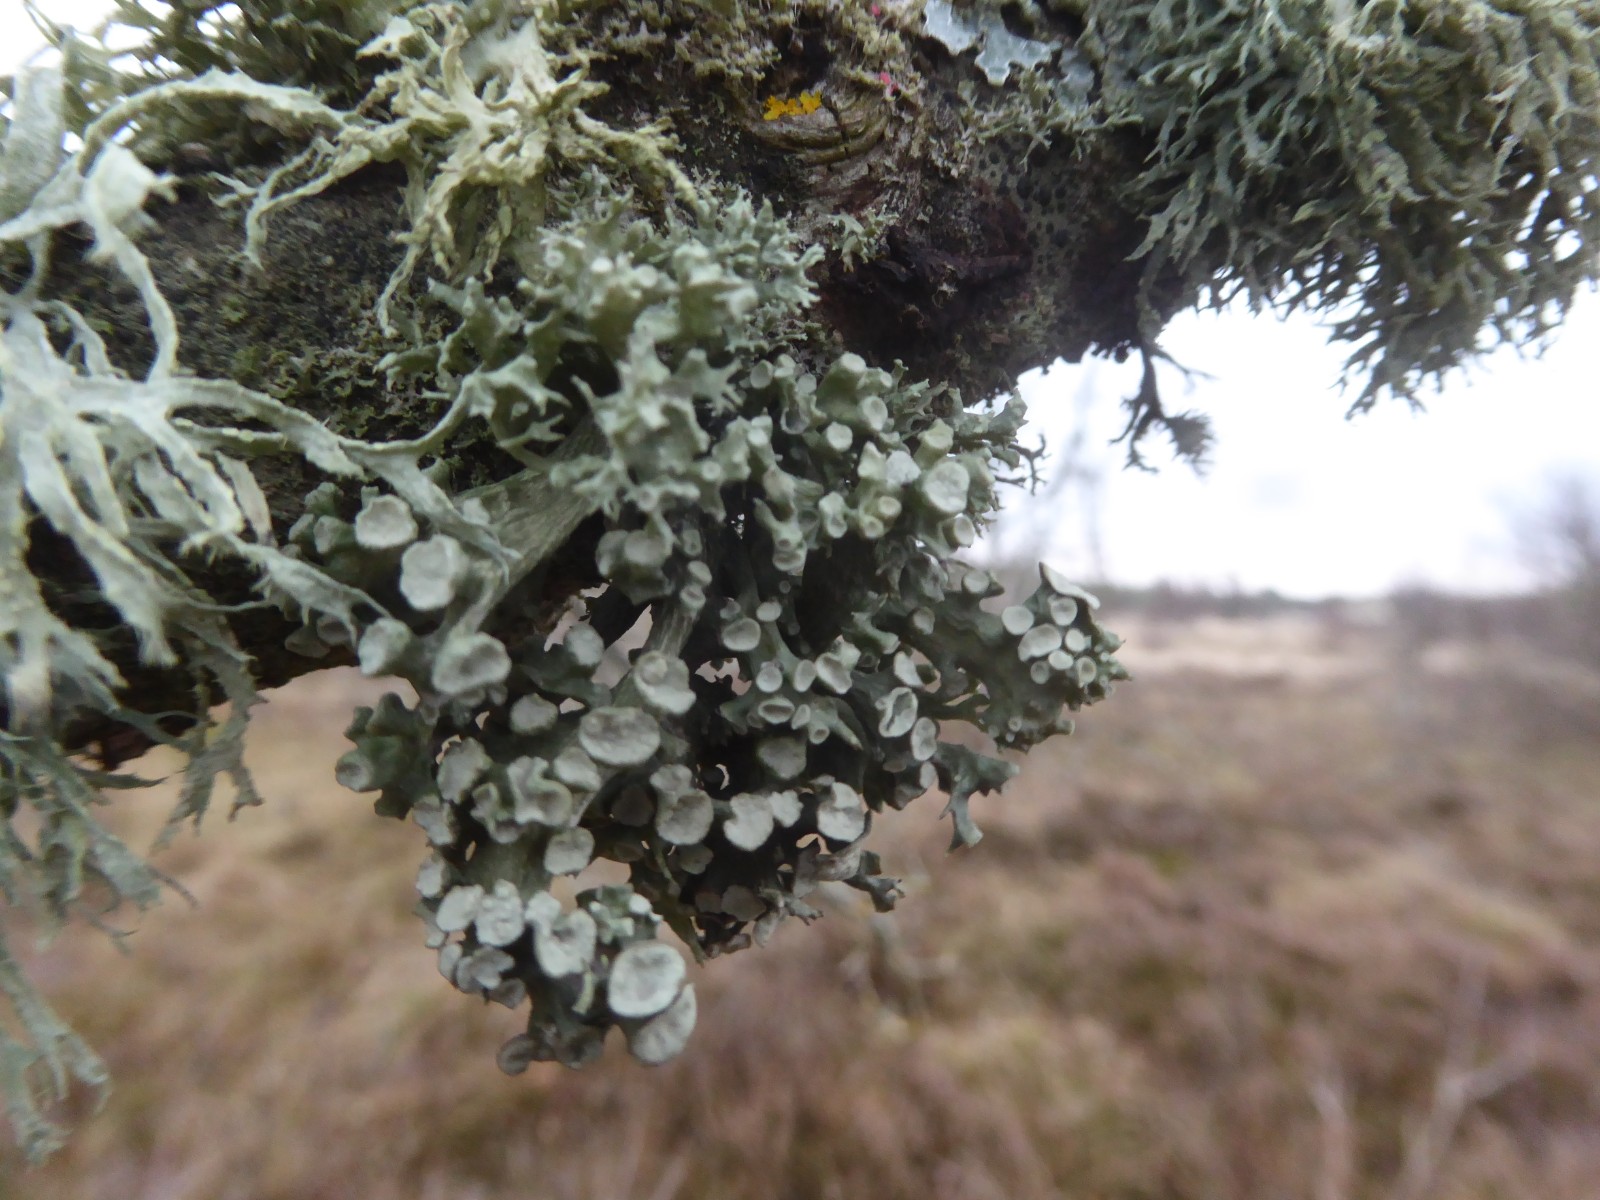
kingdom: Fungi
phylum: Ascomycota
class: Lecanoromycetes
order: Lecanorales
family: Ramalinaceae
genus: Ramalina
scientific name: Ramalina fastigiata
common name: tue-grenlav
